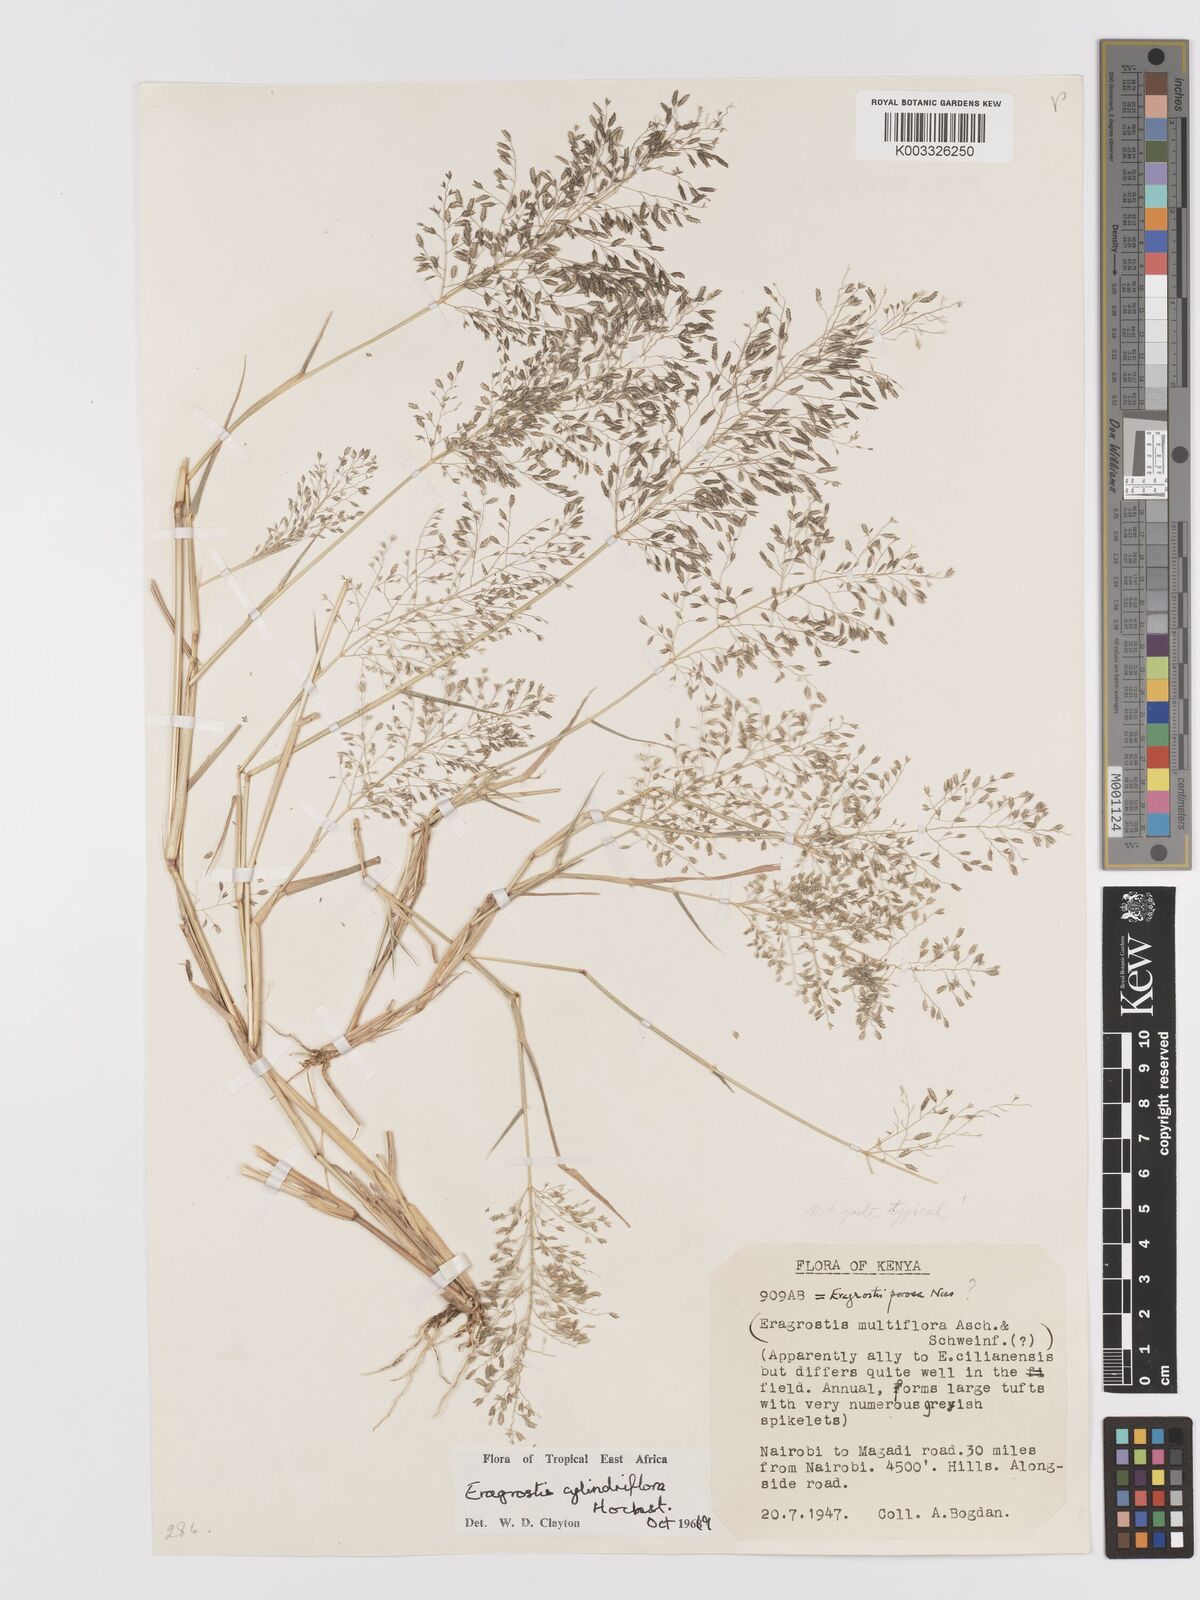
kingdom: Plantae
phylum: Tracheophyta
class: Liliopsida
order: Poales
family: Poaceae
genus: Eragrostis
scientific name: Eragrostis cylindriflora
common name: Cylinderflower lovegrass
